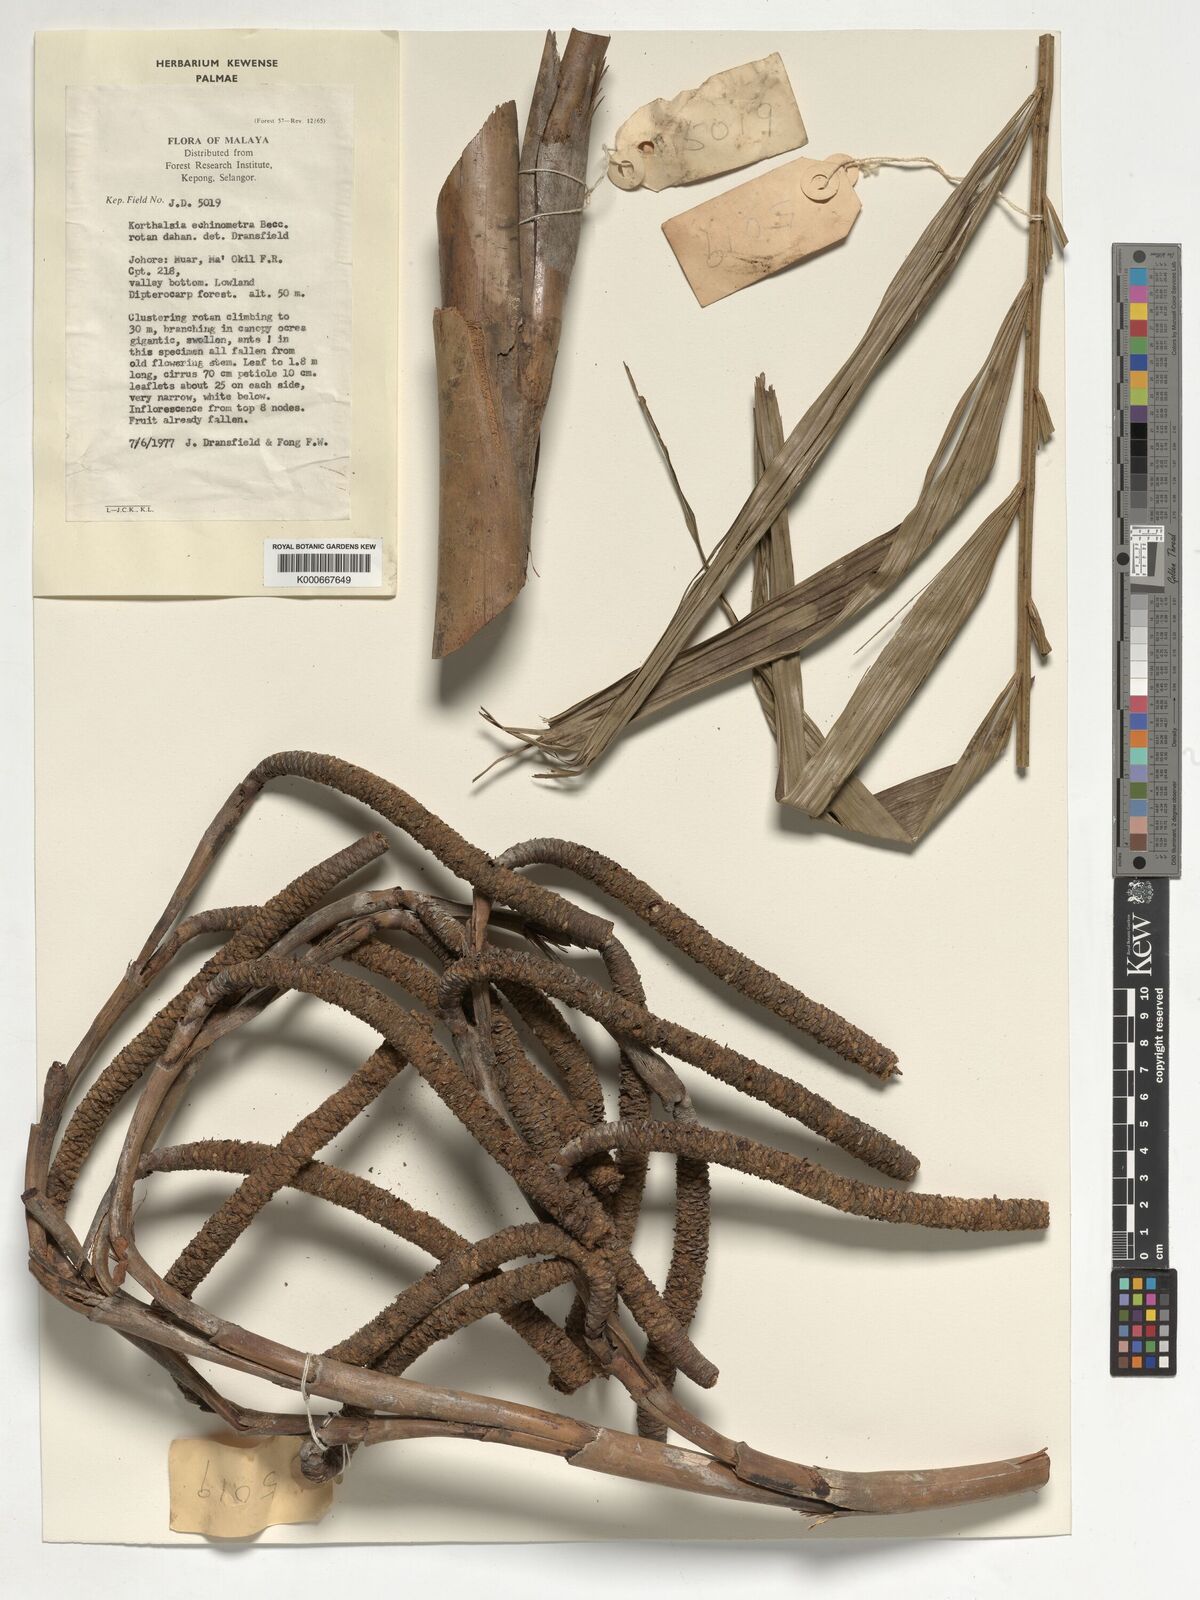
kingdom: Plantae
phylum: Tracheophyta
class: Liliopsida
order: Arecales
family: Arecaceae
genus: Korthalsia
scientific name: Korthalsia echinometra
